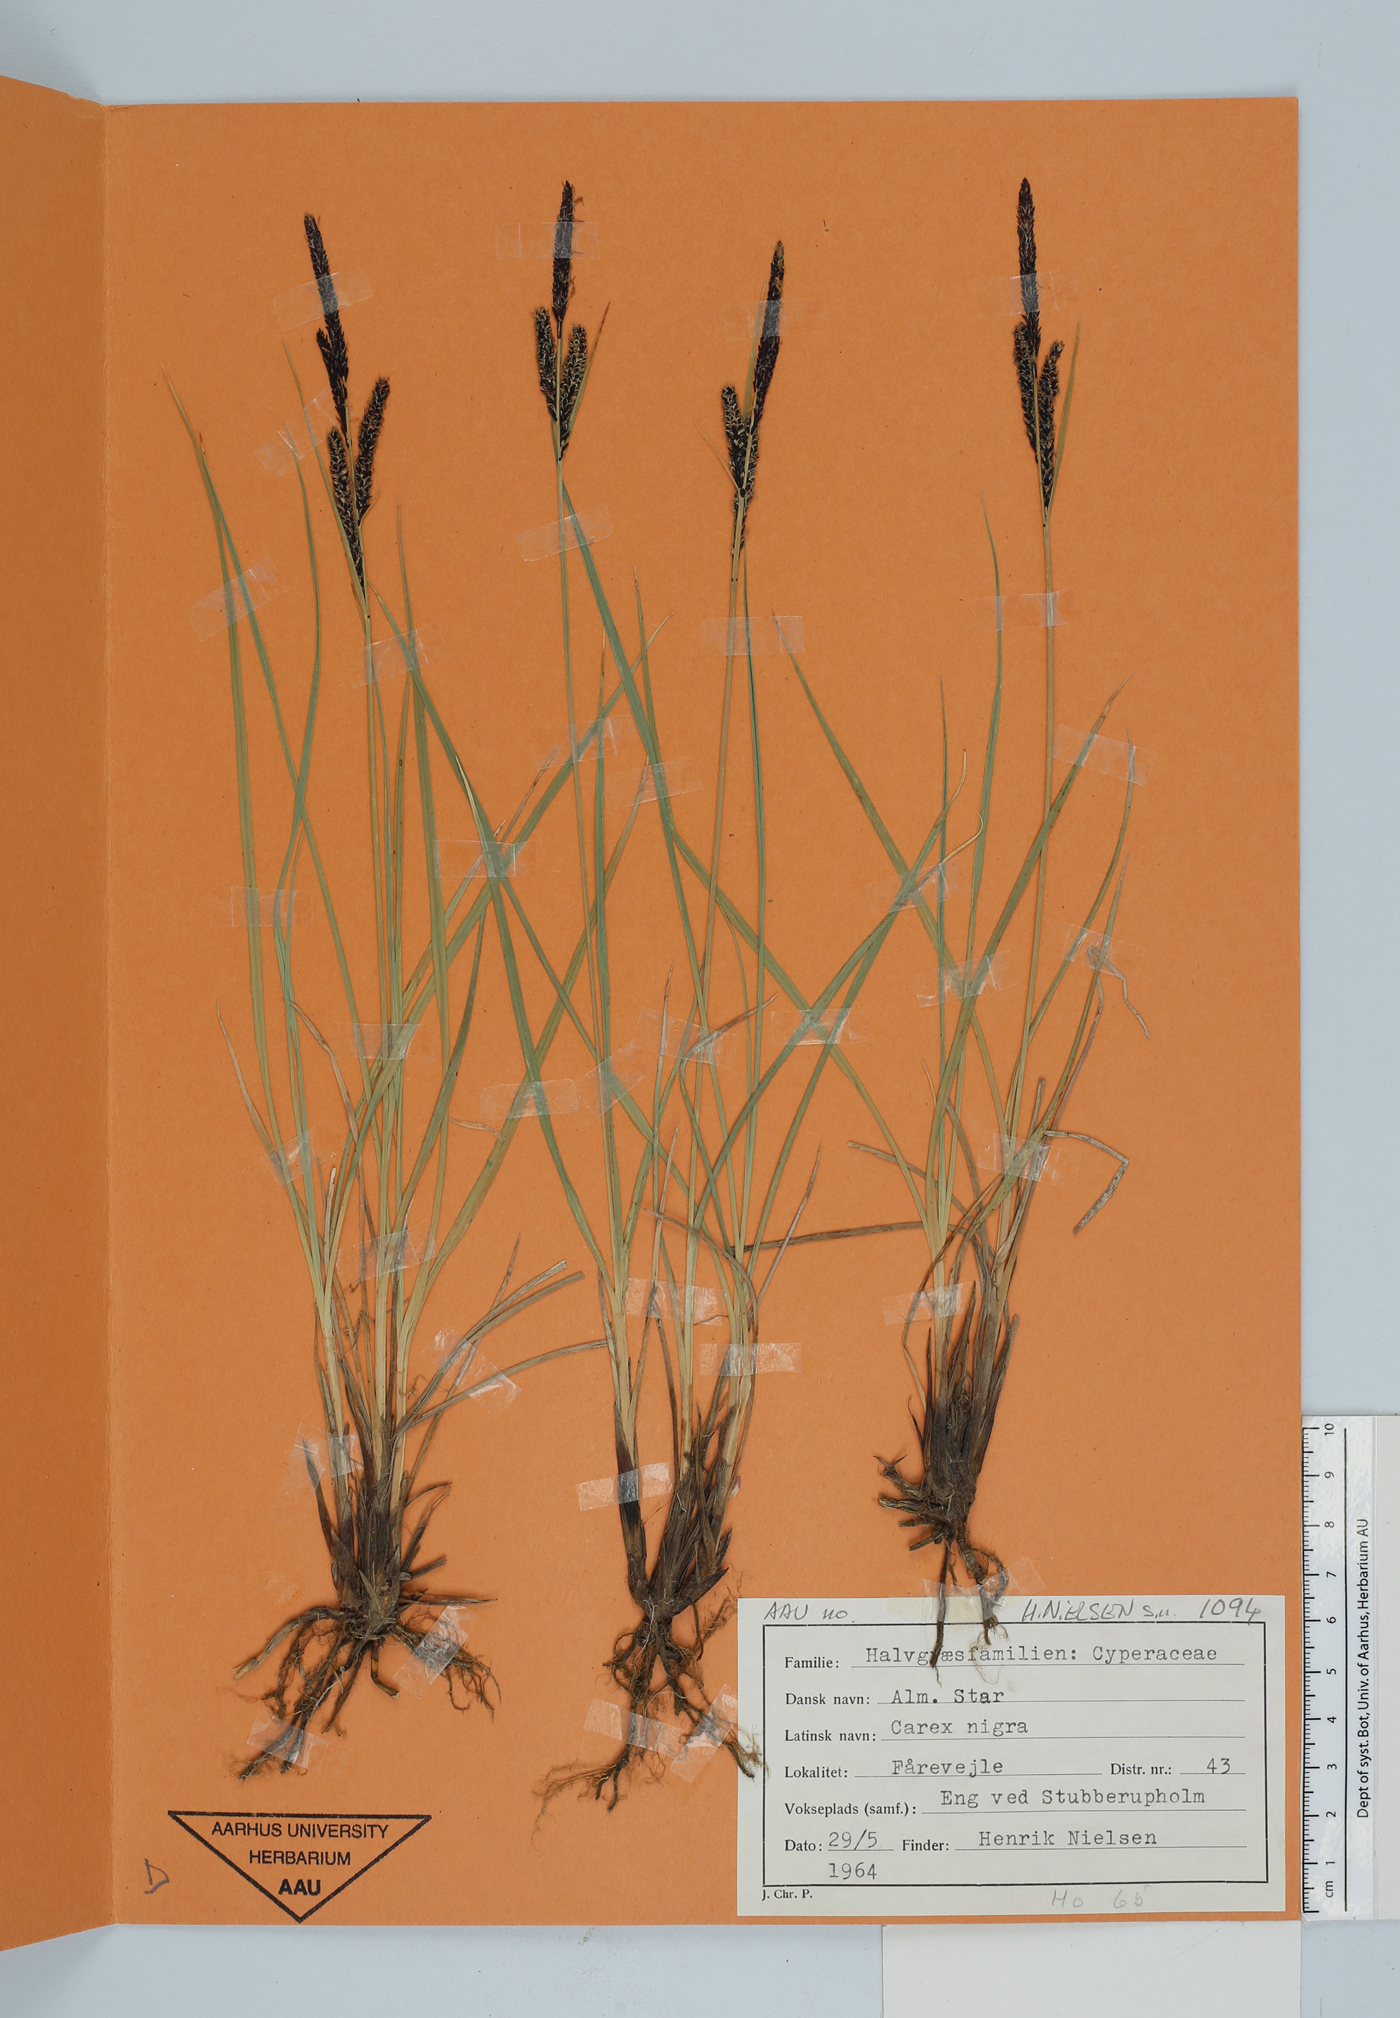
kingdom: Plantae
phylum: Tracheophyta
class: Liliopsida
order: Poales
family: Cyperaceae
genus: Carex
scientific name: Carex nigra
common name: Common sedge
